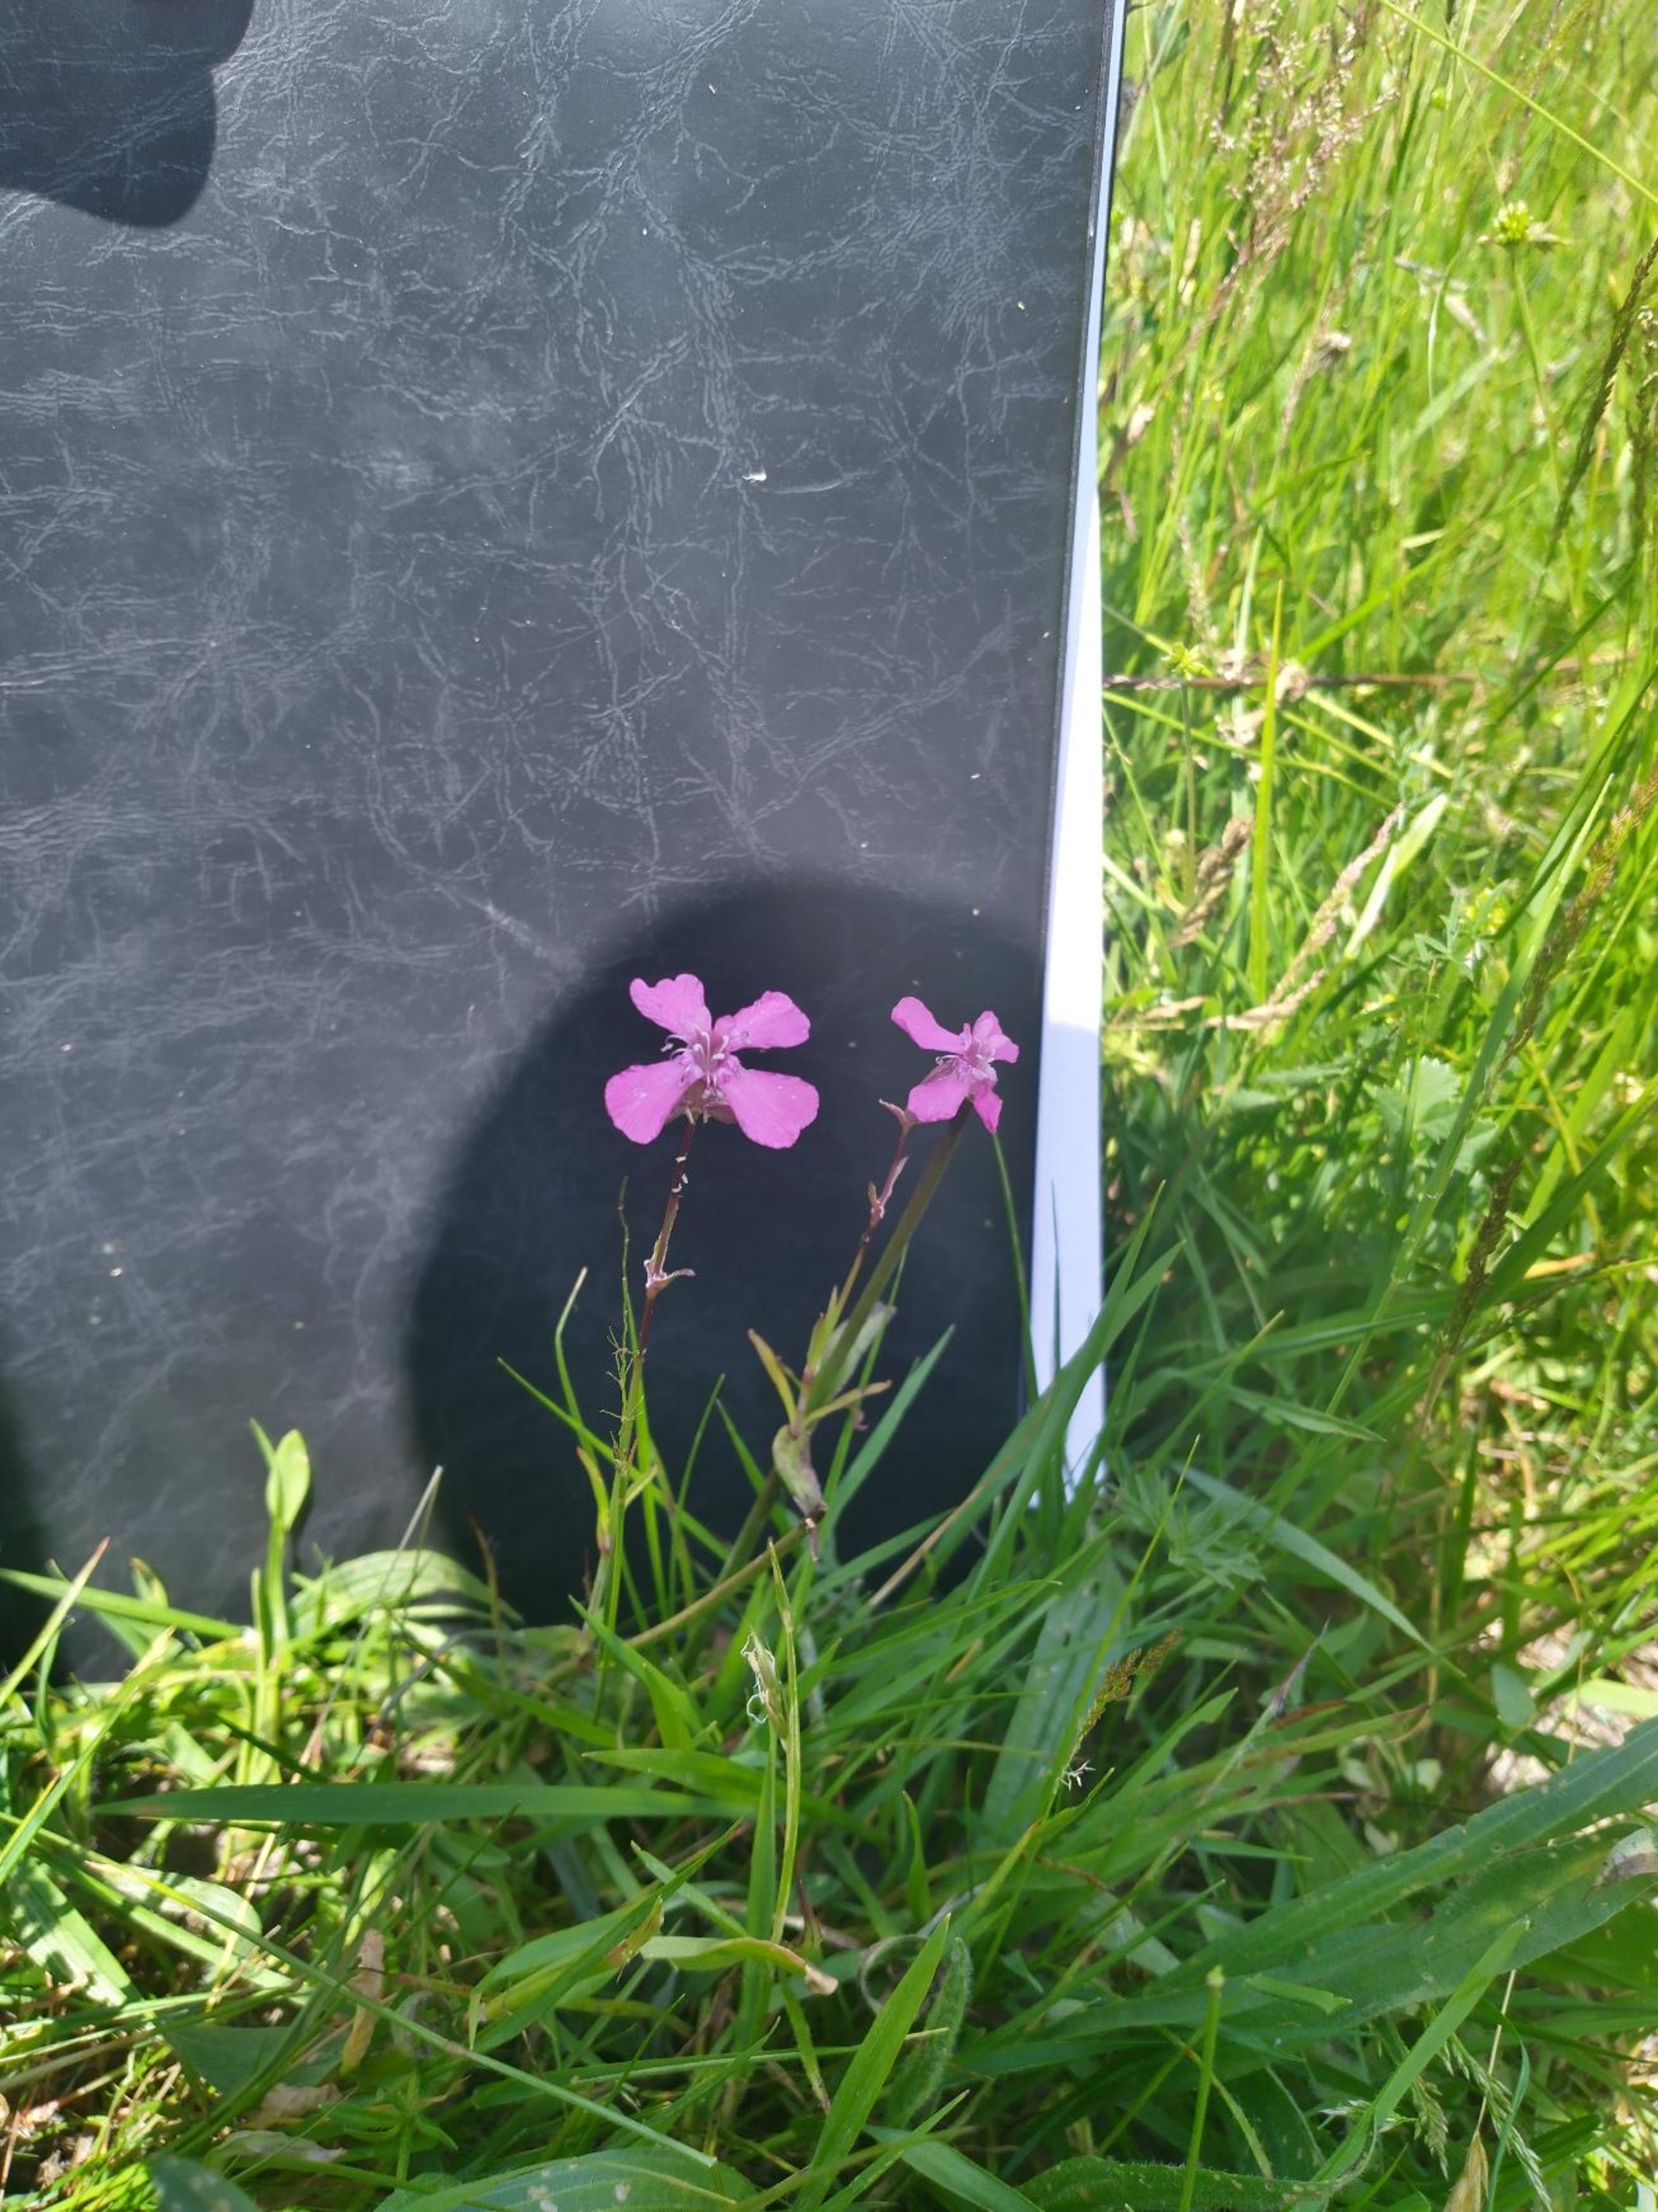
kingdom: Plantae
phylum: Tracheophyta
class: Magnoliopsida
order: Caryophyllales
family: Caryophyllaceae
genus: Viscaria
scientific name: Viscaria vulgaris
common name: Tjærenellike
